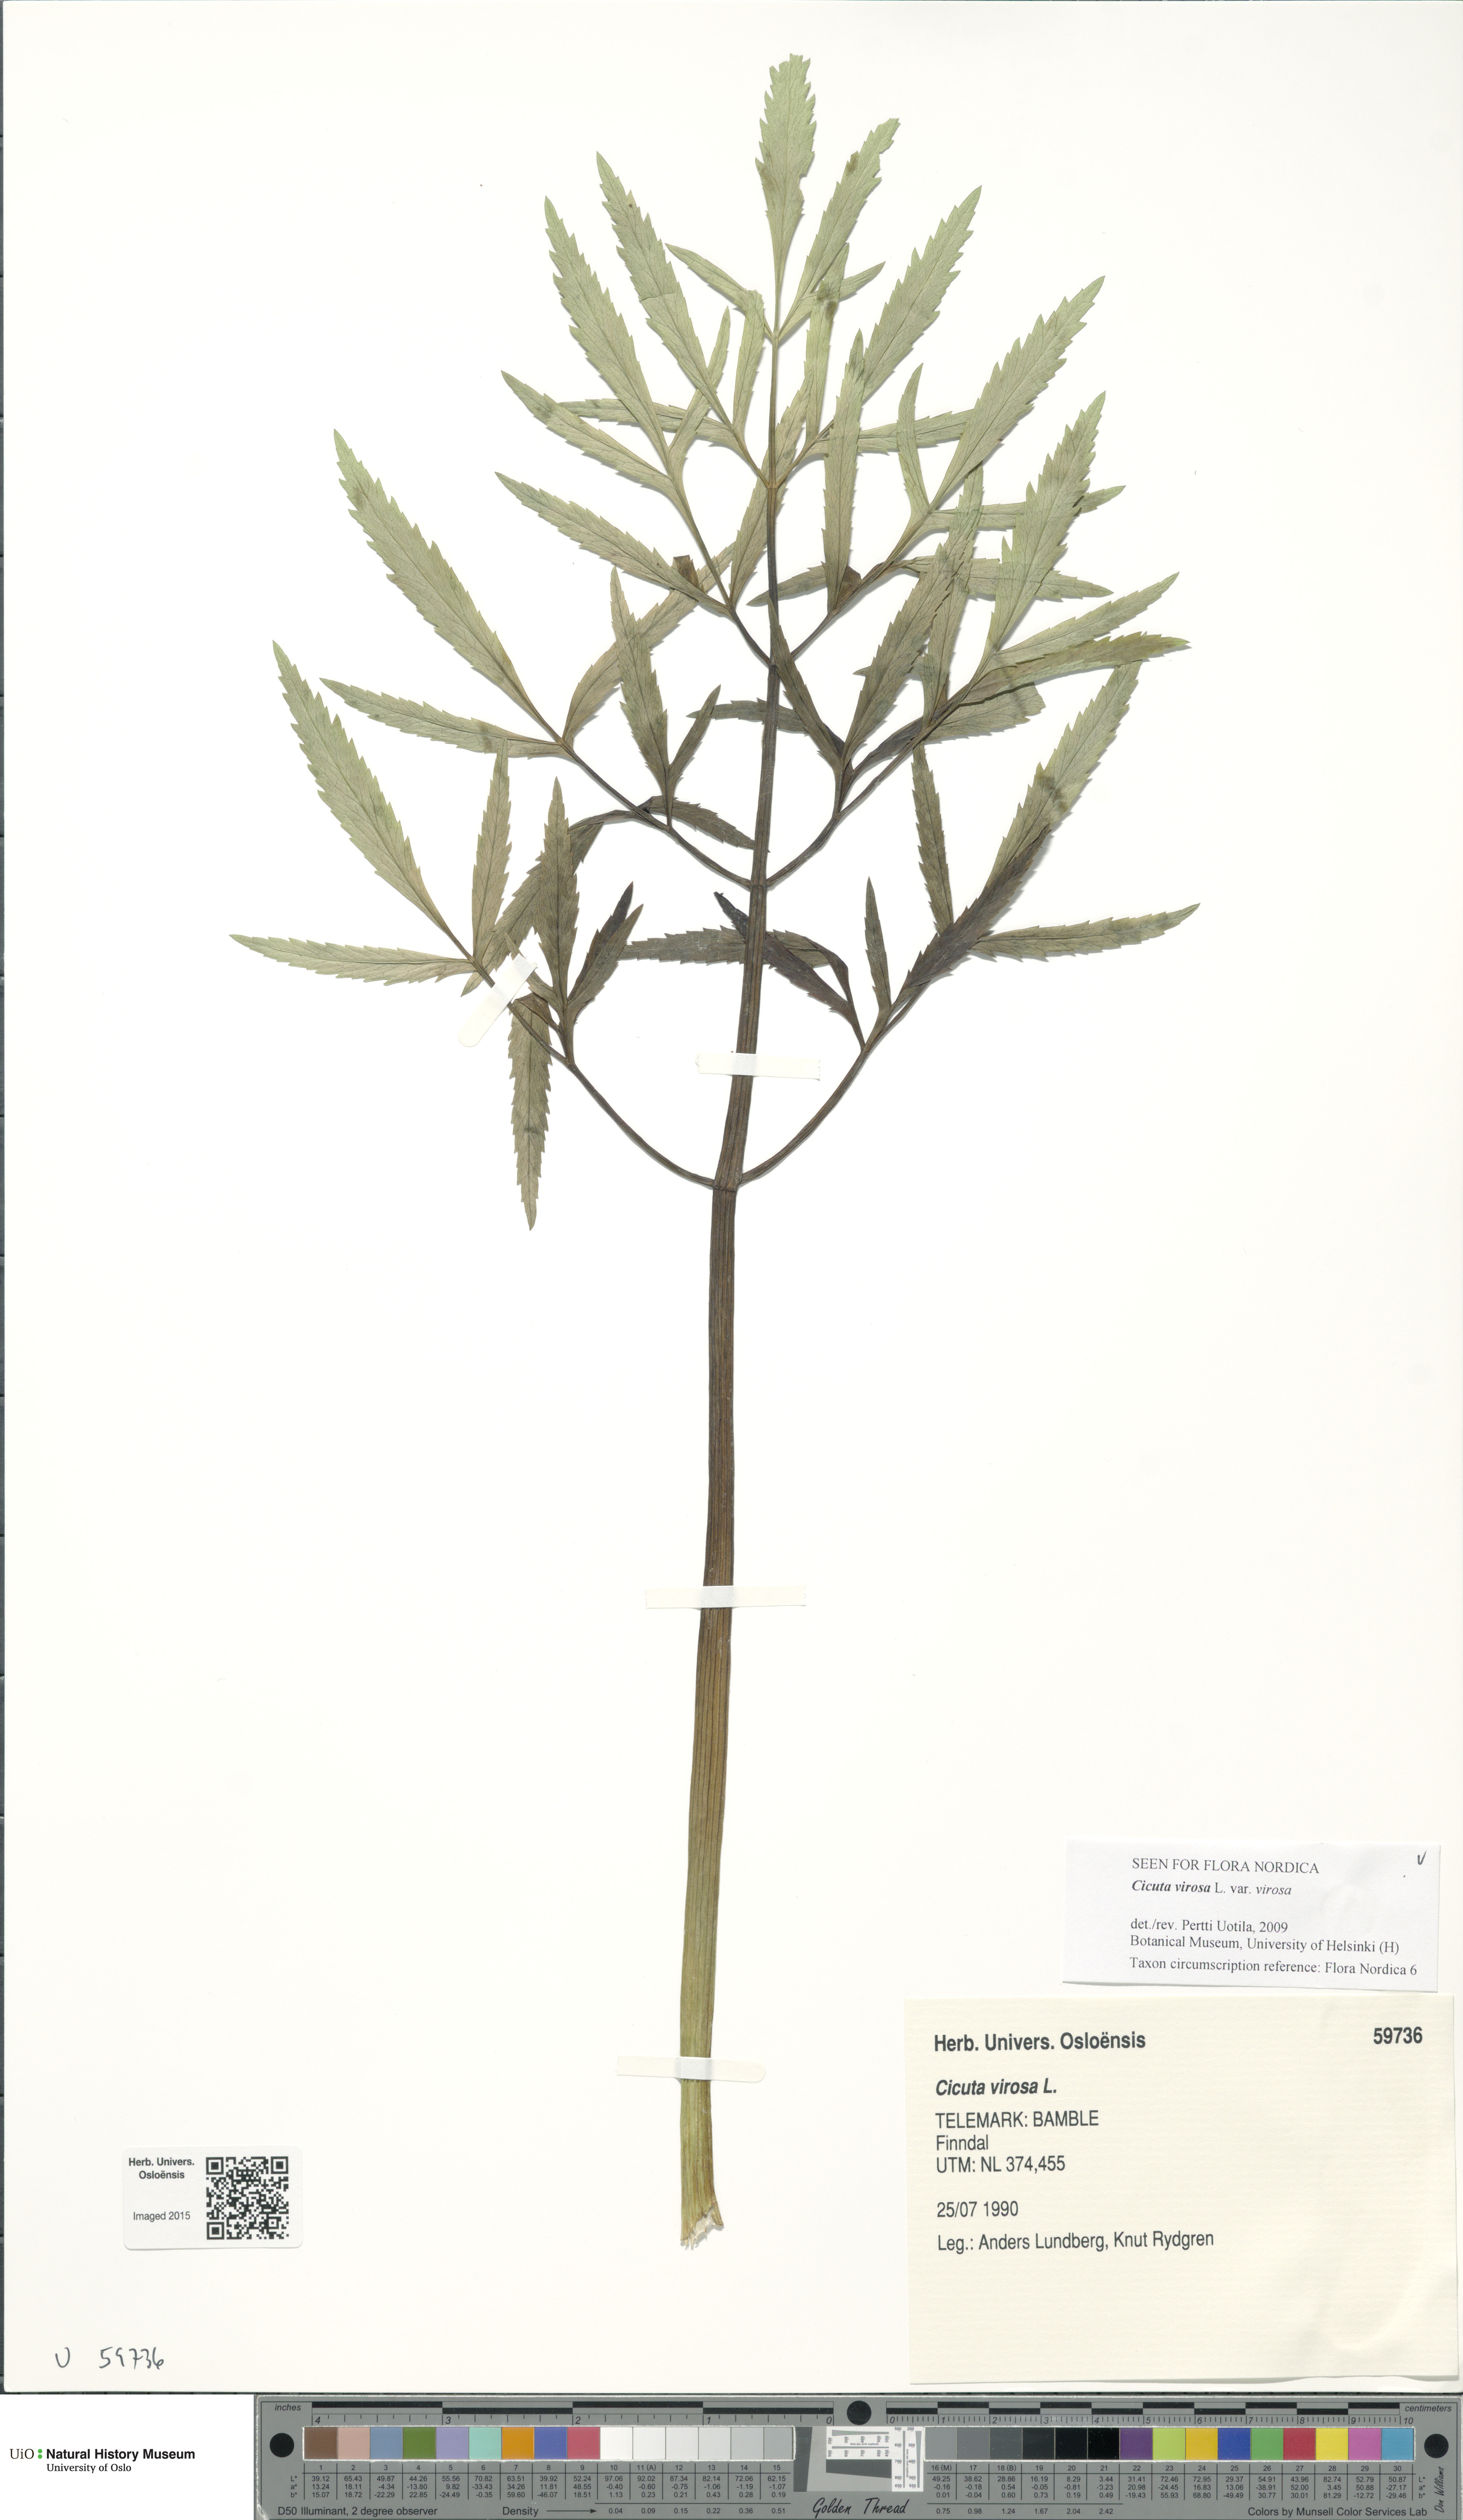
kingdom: Plantae
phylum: Tracheophyta
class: Magnoliopsida
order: Apiales
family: Apiaceae
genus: Cicuta
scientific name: Cicuta virosa
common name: Cowbane
